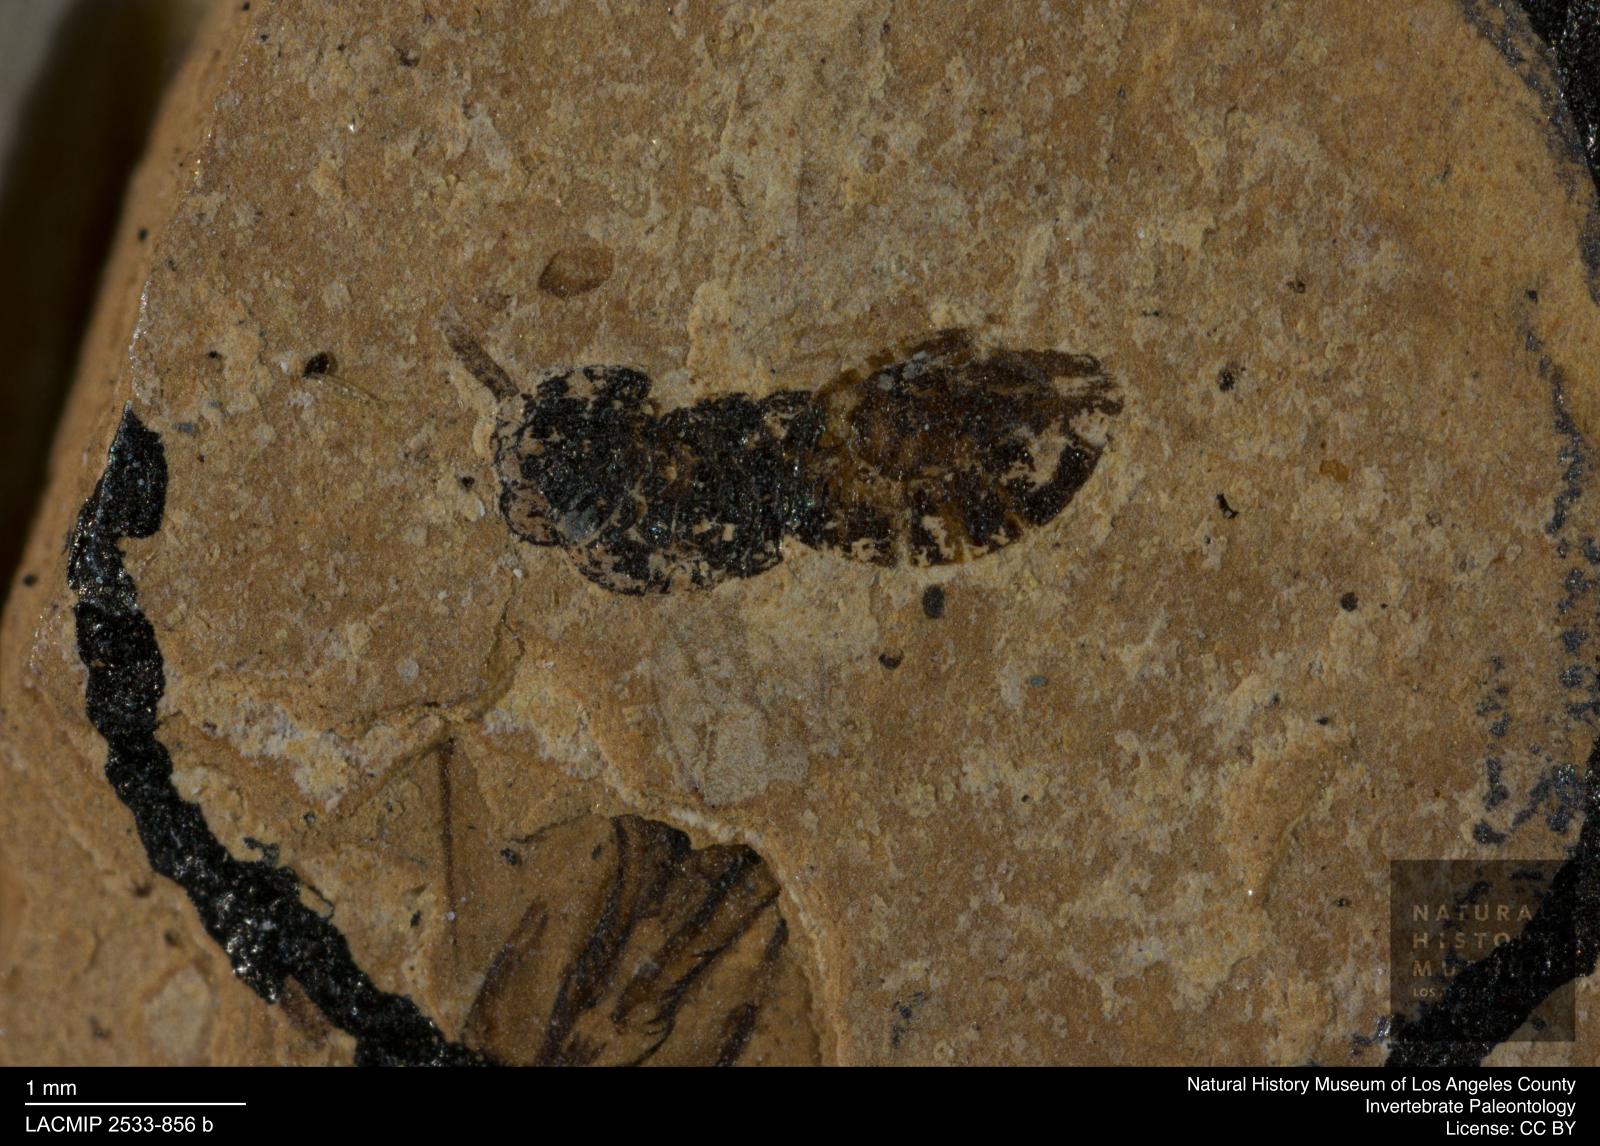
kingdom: Animalia
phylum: Arthropoda
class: Insecta
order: Hymenoptera
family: Pteromalidae
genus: Pteromalus
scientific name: Pteromalus rottensis
